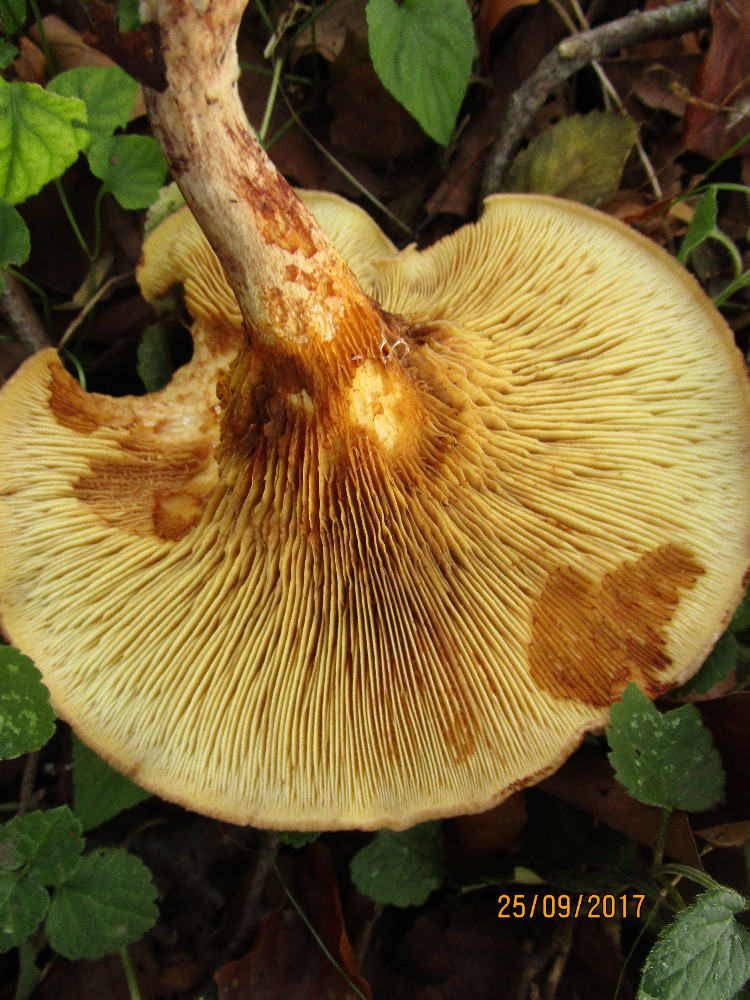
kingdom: Fungi
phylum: Basidiomycota
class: Agaricomycetes
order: Boletales
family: Paxillaceae
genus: Paxillus
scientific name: Paxillus rubicundulus
